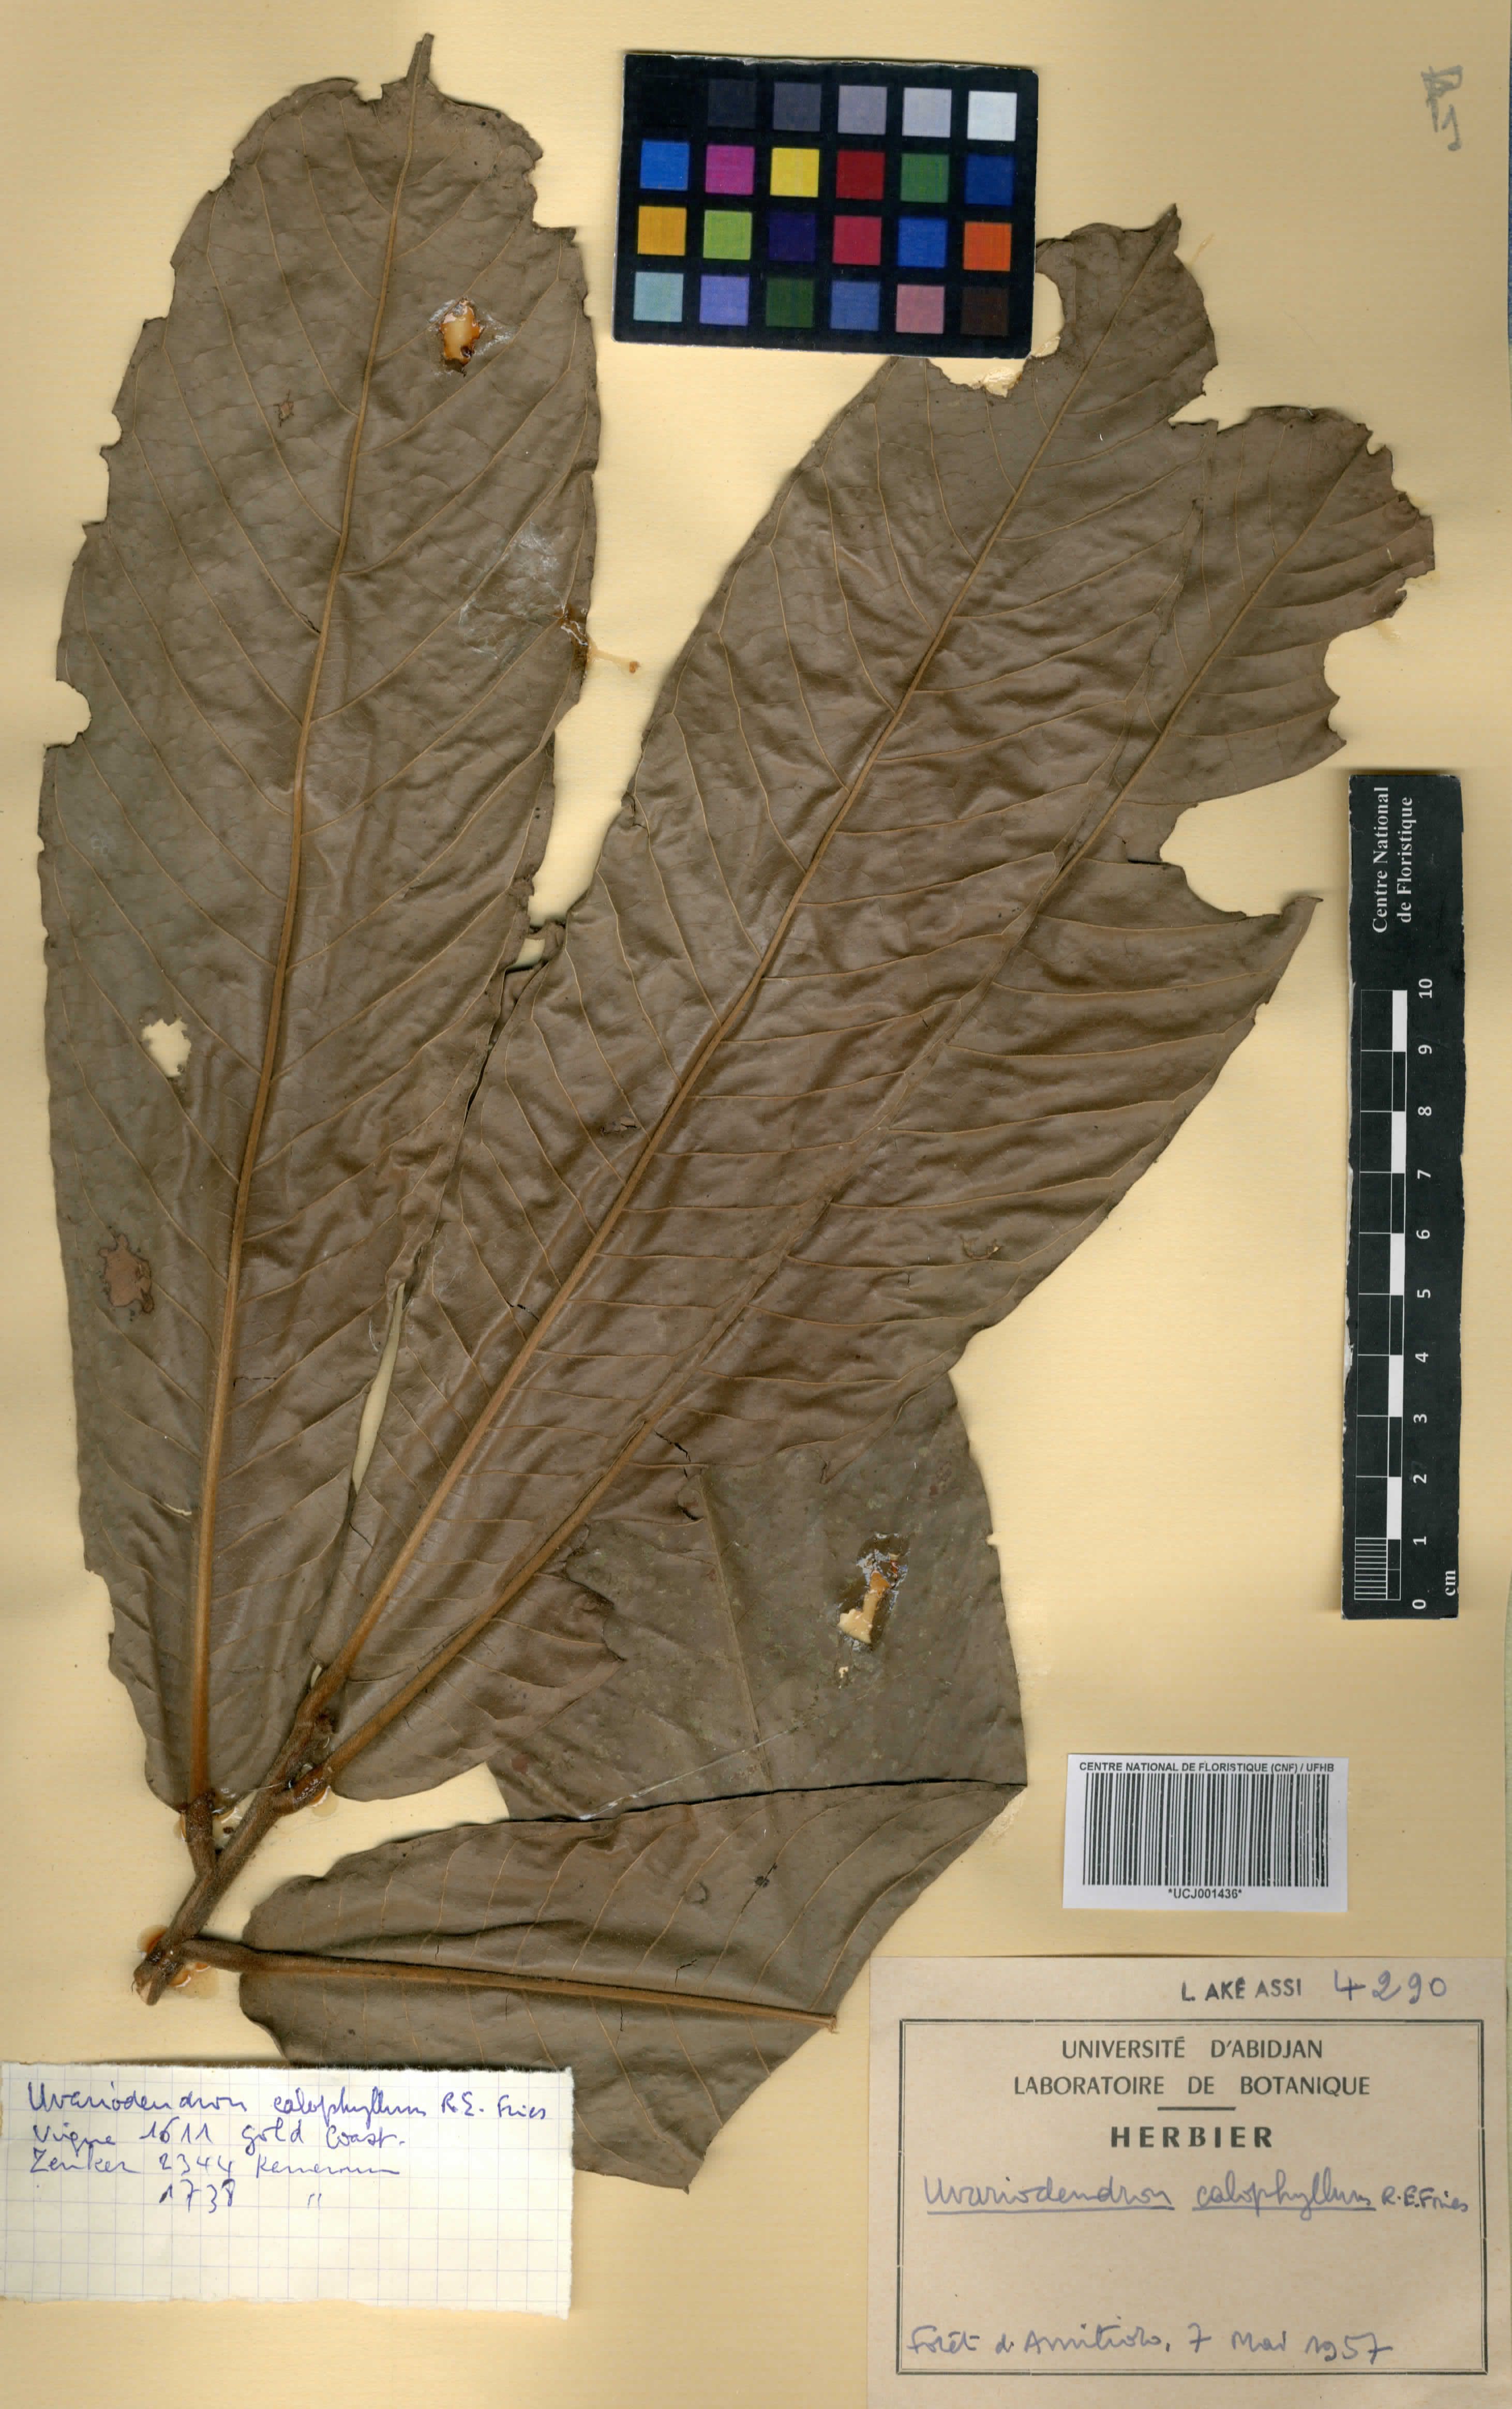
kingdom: Plantae
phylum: Tracheophyta
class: Magnoliopsida
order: Magnoliales
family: Annonaceae
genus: Uvariodendron
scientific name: Uvariodendron calophyllum
